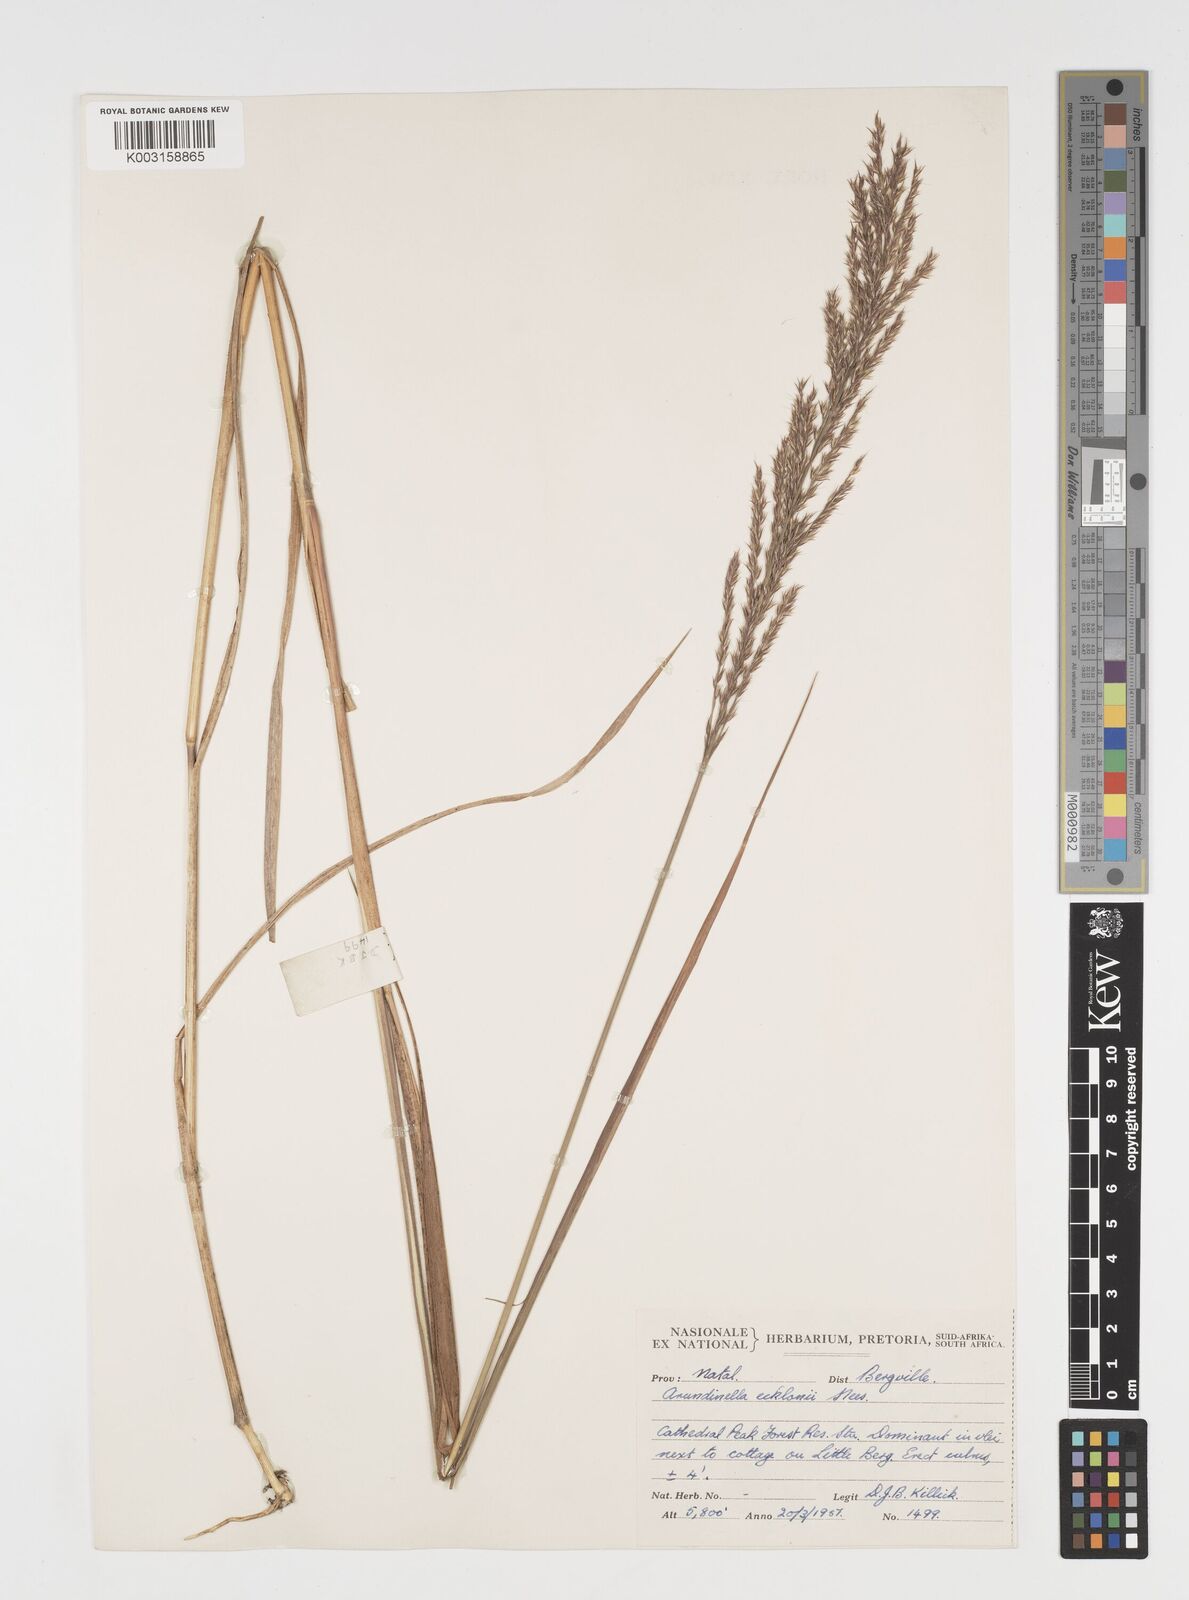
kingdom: Plantae
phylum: Tracheophyta
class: Liliopsida
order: Poales
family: Poaceae
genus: Arundinella
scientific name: Arundinella nepalensis
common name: Reed grass
